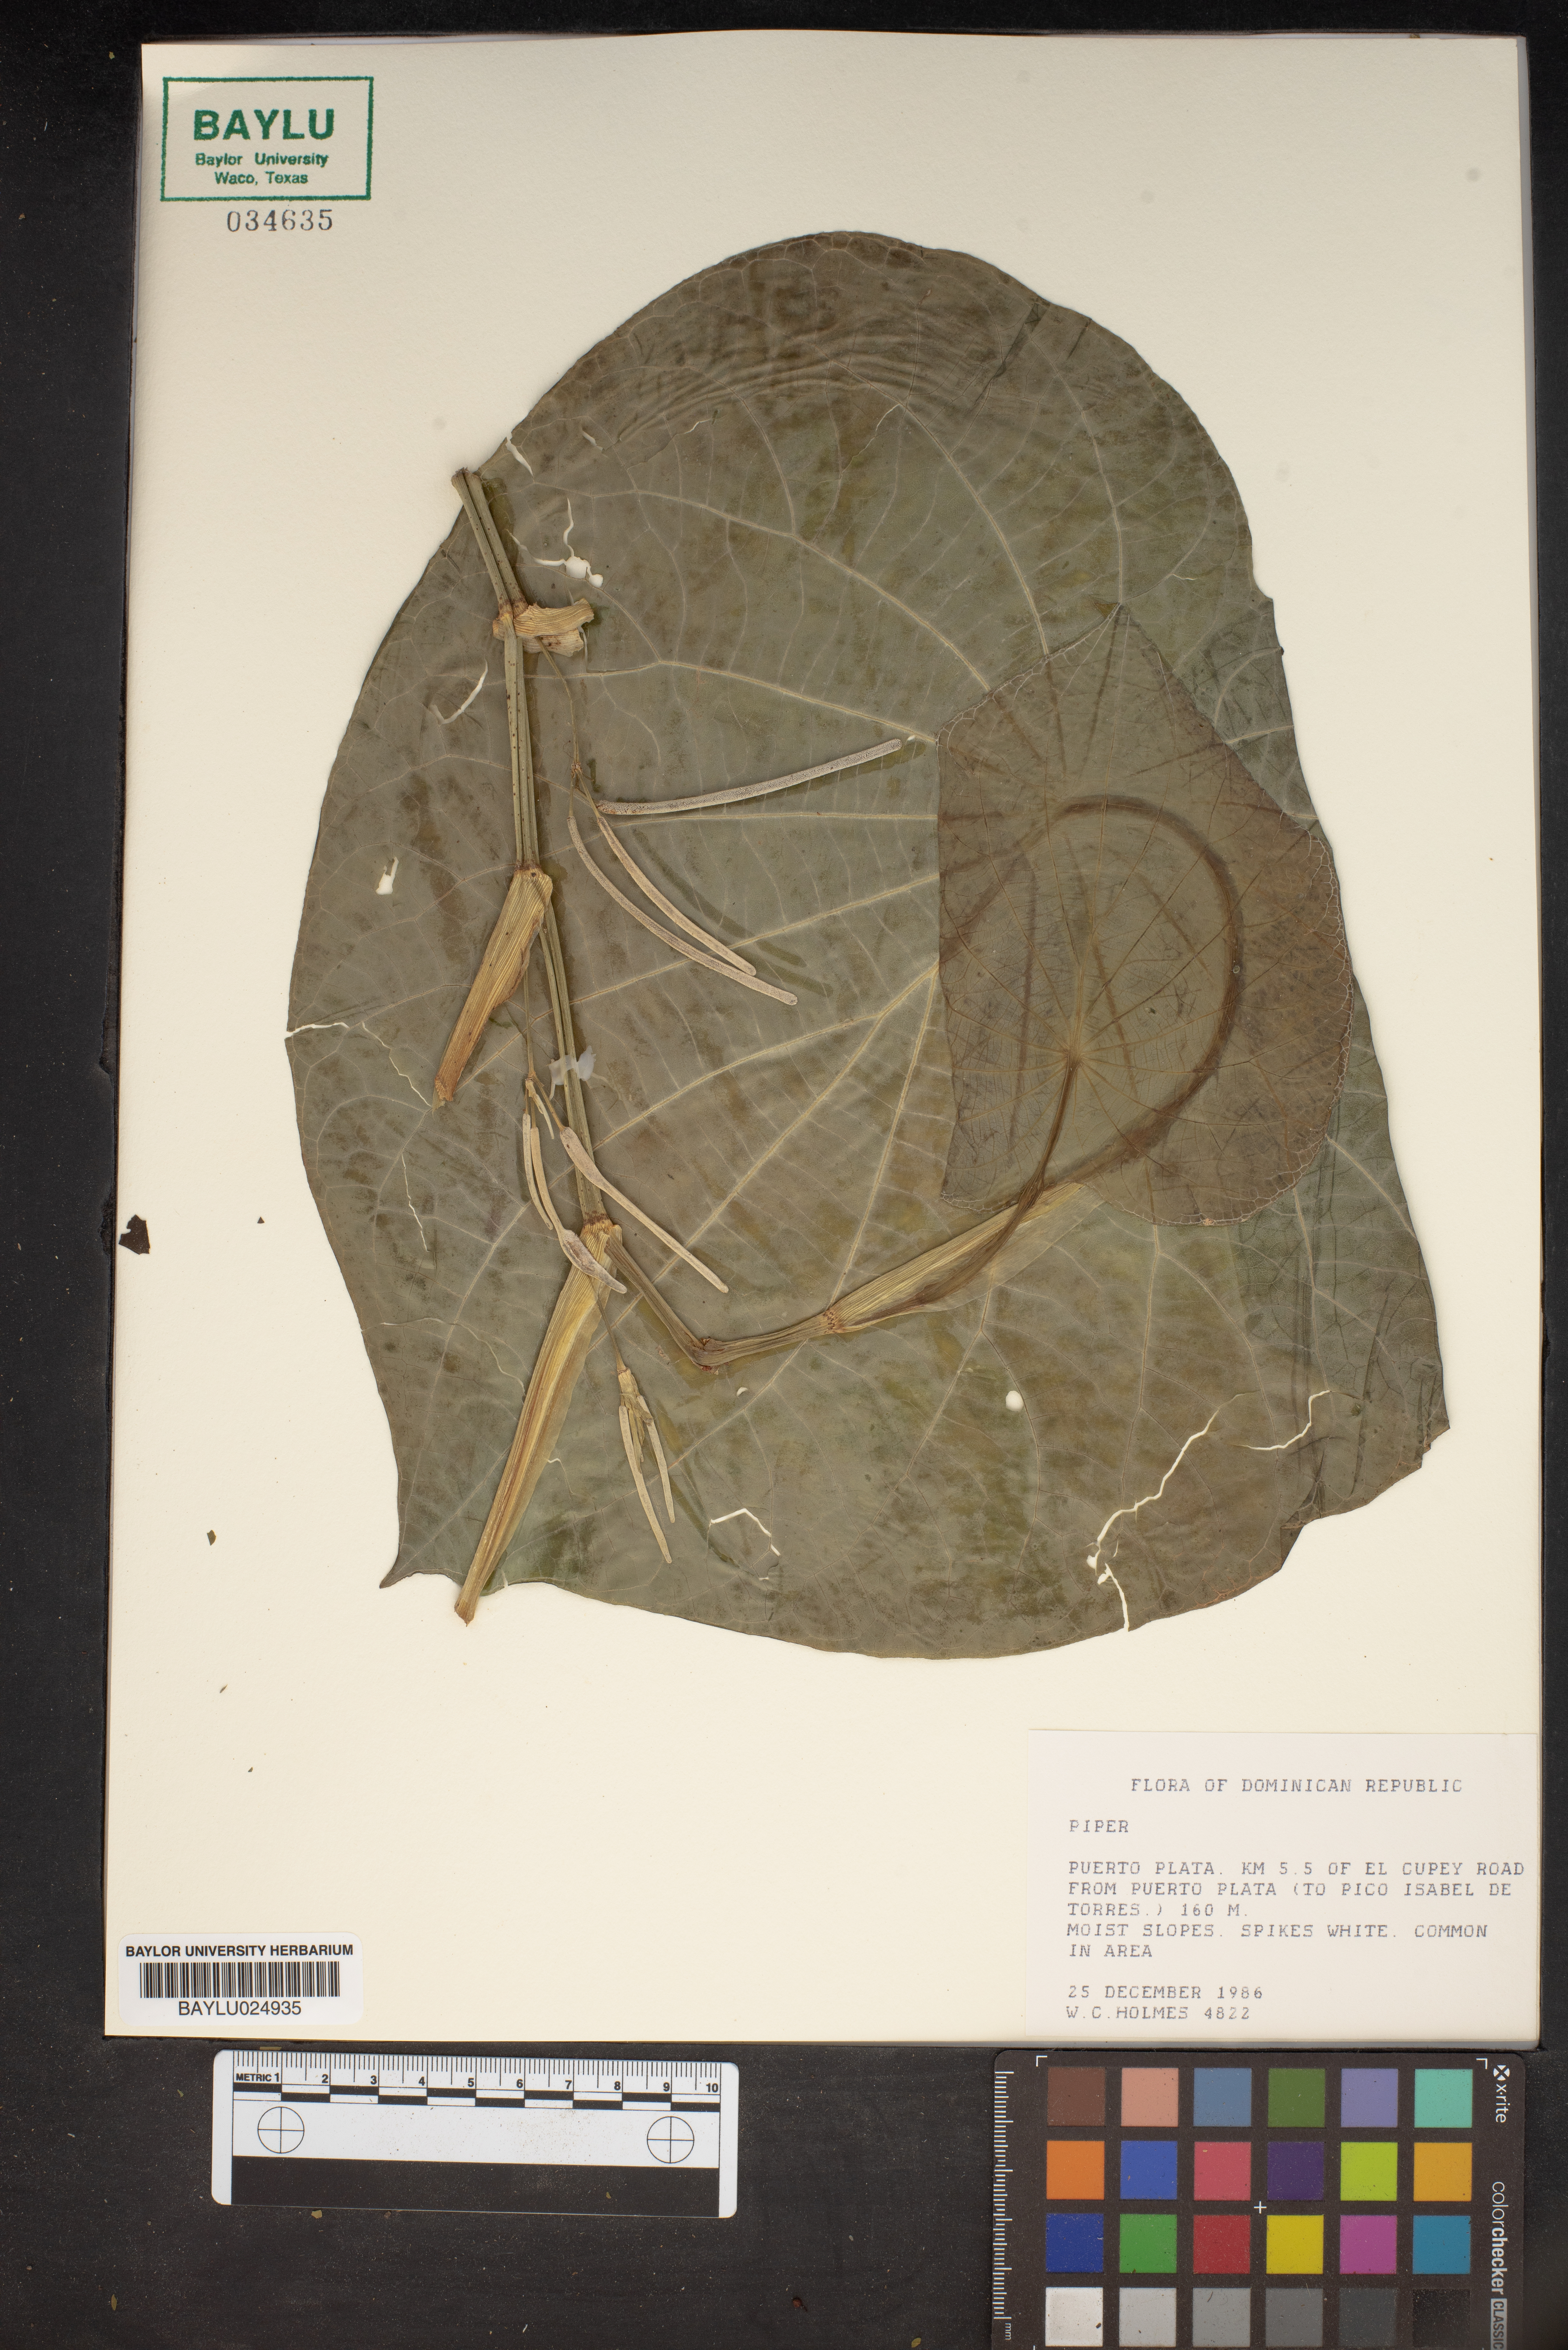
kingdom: Plantae
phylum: Tracheophyta
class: Magnoliopsida
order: Piperales
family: Piperaceae
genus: Piper
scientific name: Piper
